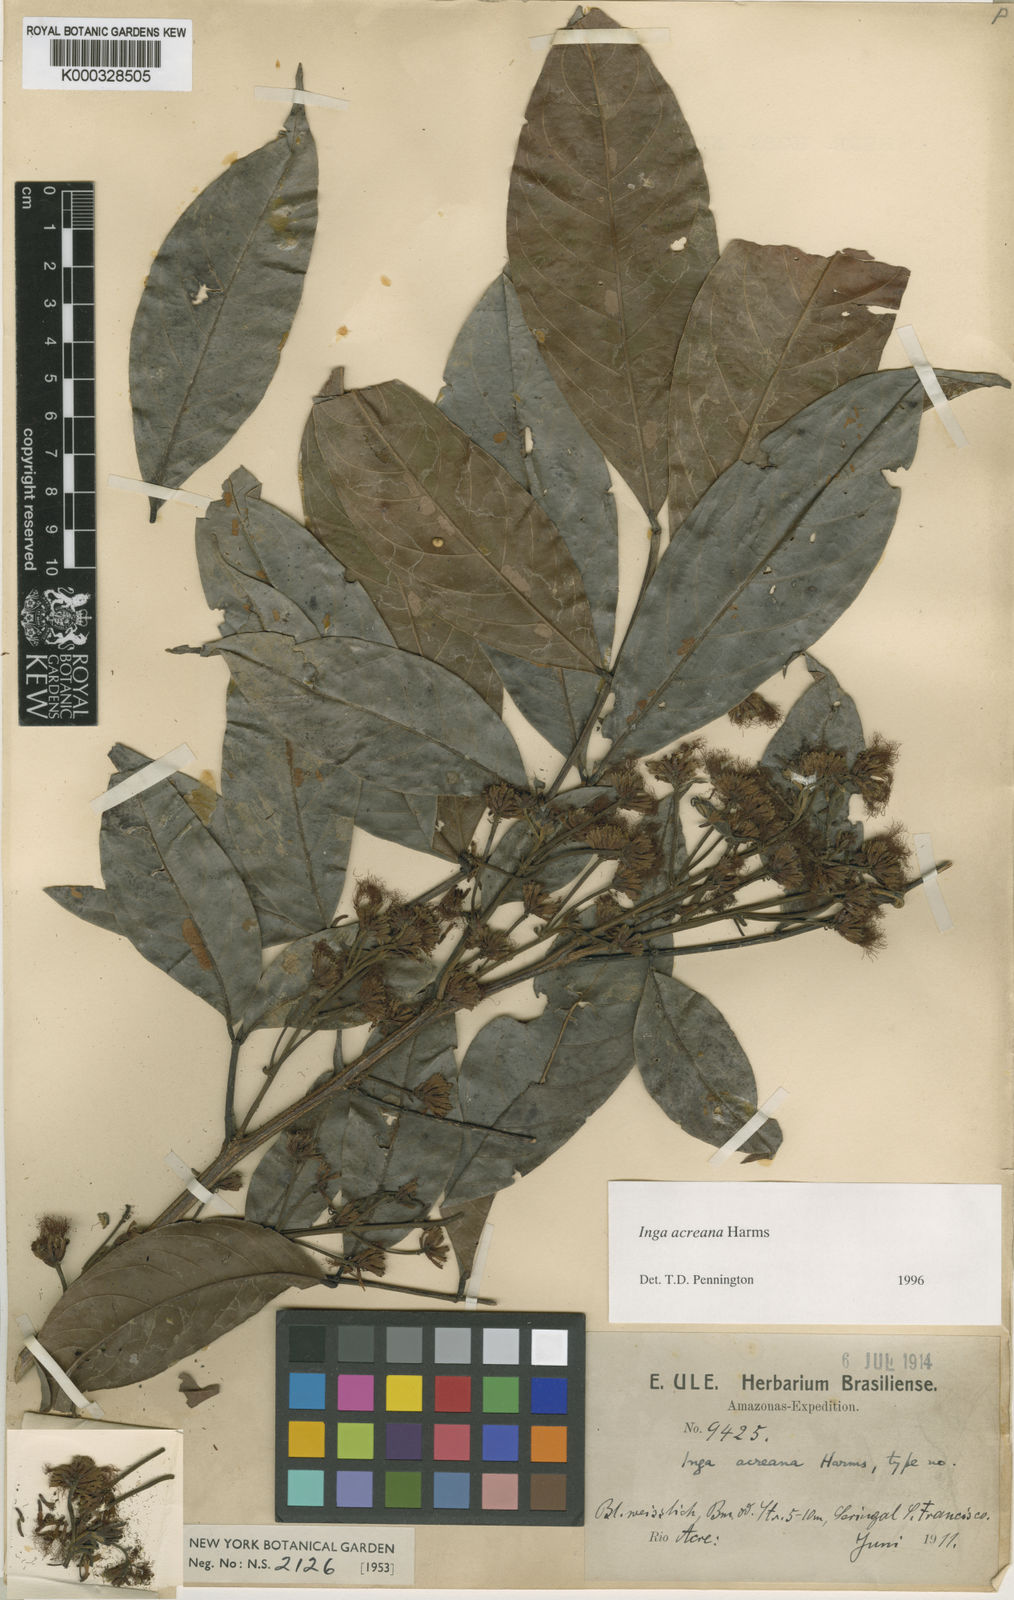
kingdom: Plantae
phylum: Tracheophyta
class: Magnoliopsida
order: Fabales
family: Fabaceae
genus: Inga
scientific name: Inga acreana
